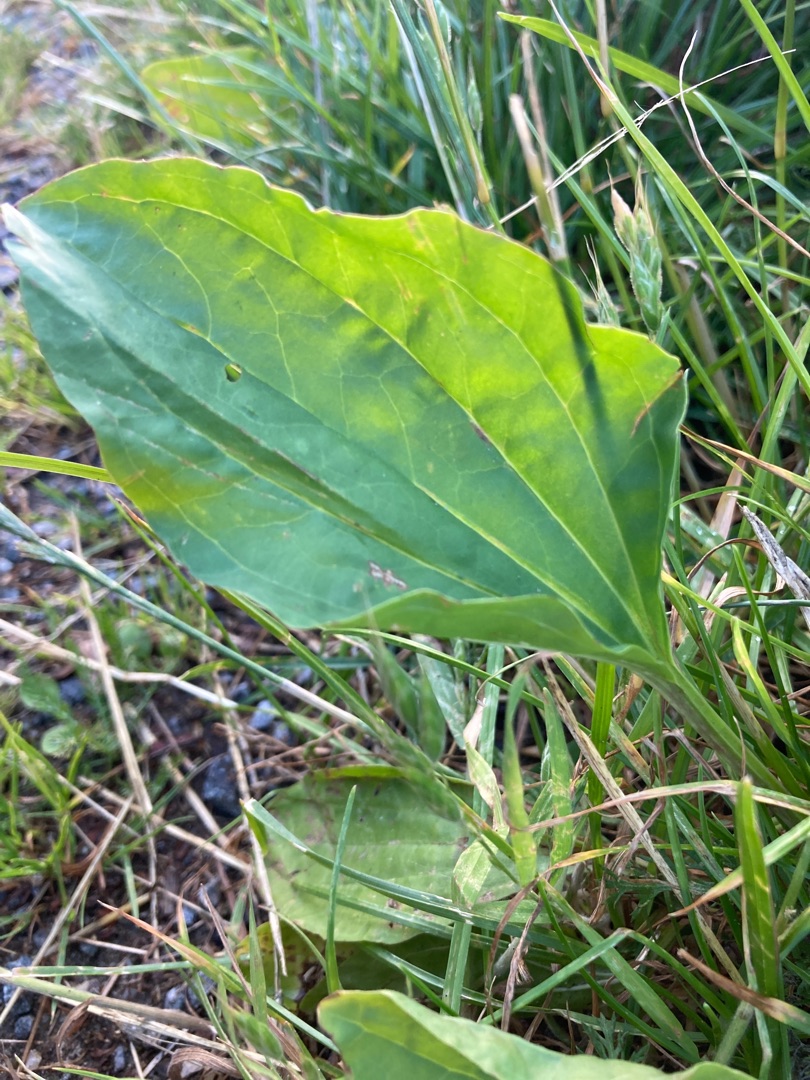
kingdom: Plantae
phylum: Tracheophyta
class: Magnoliopsida
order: Lamiales
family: Plantaginaceae
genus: Plantago
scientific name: Plantago major
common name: Glat vejbred
